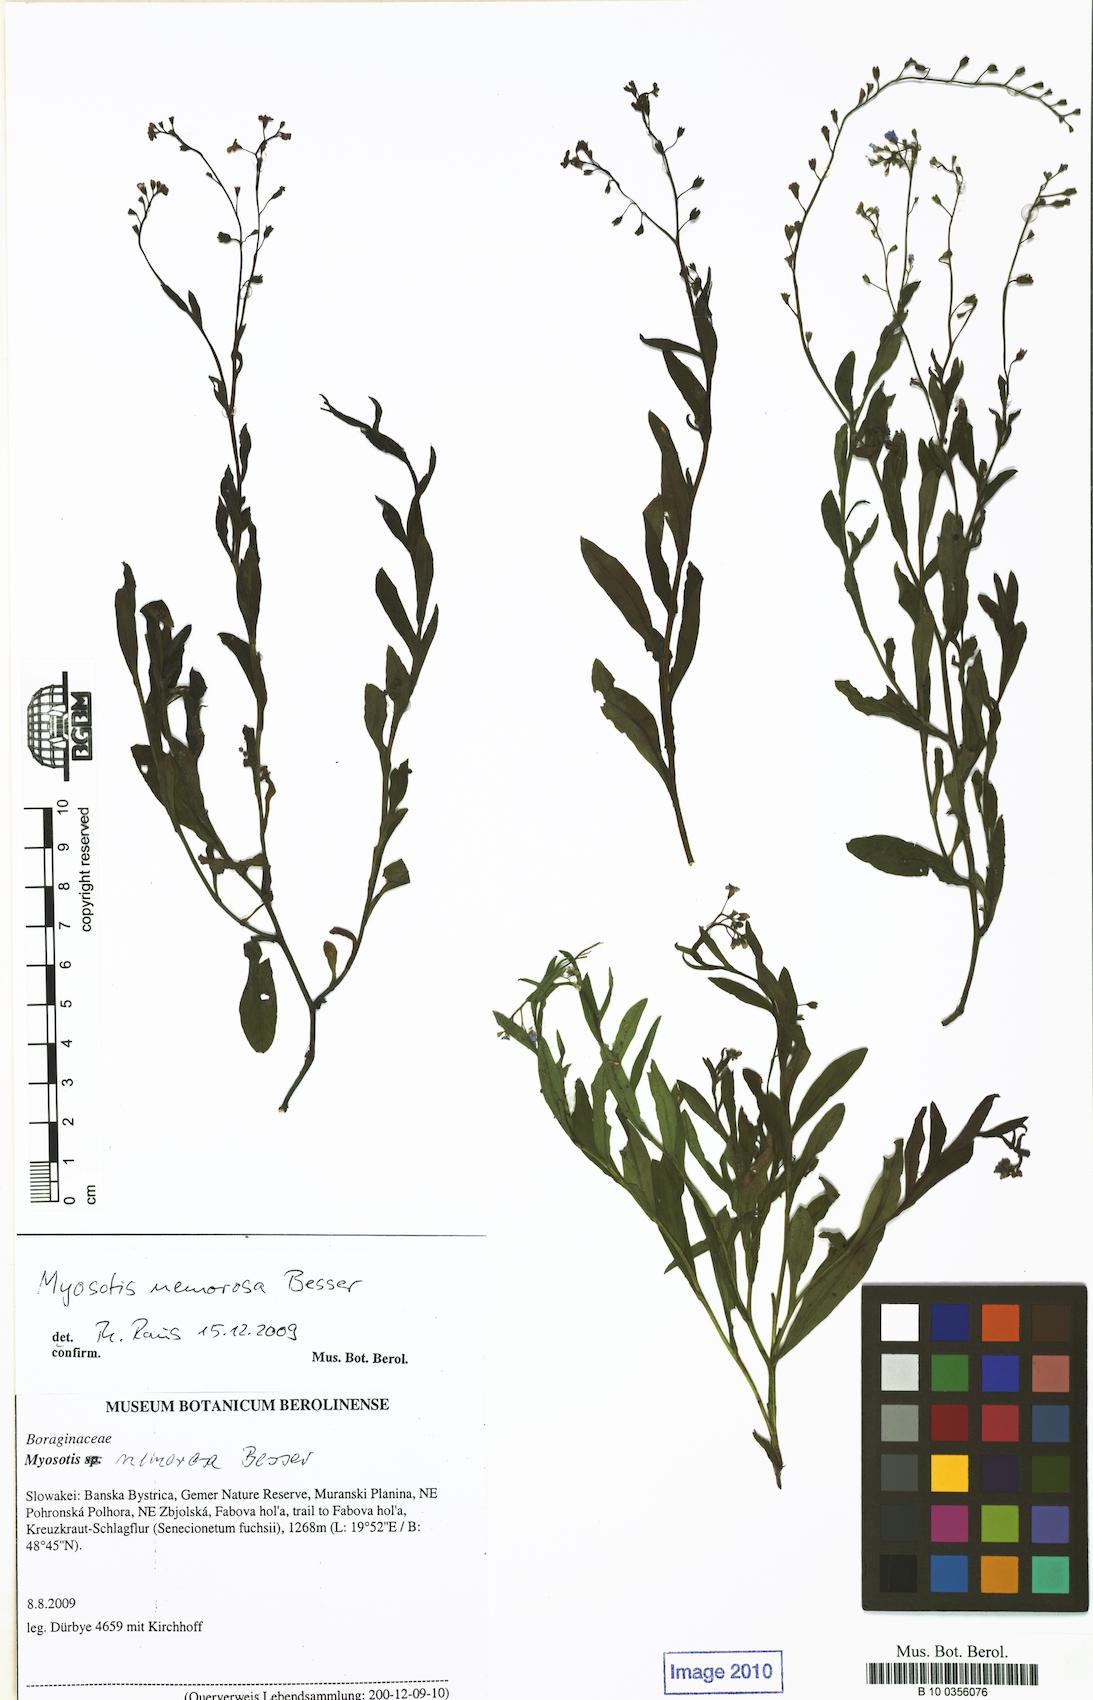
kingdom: Plantae
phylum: Tracheophyta
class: Magnoliopsida
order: Boraginales
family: Boraginaceae
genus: Myosotis
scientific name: Myosotis nemorosa
